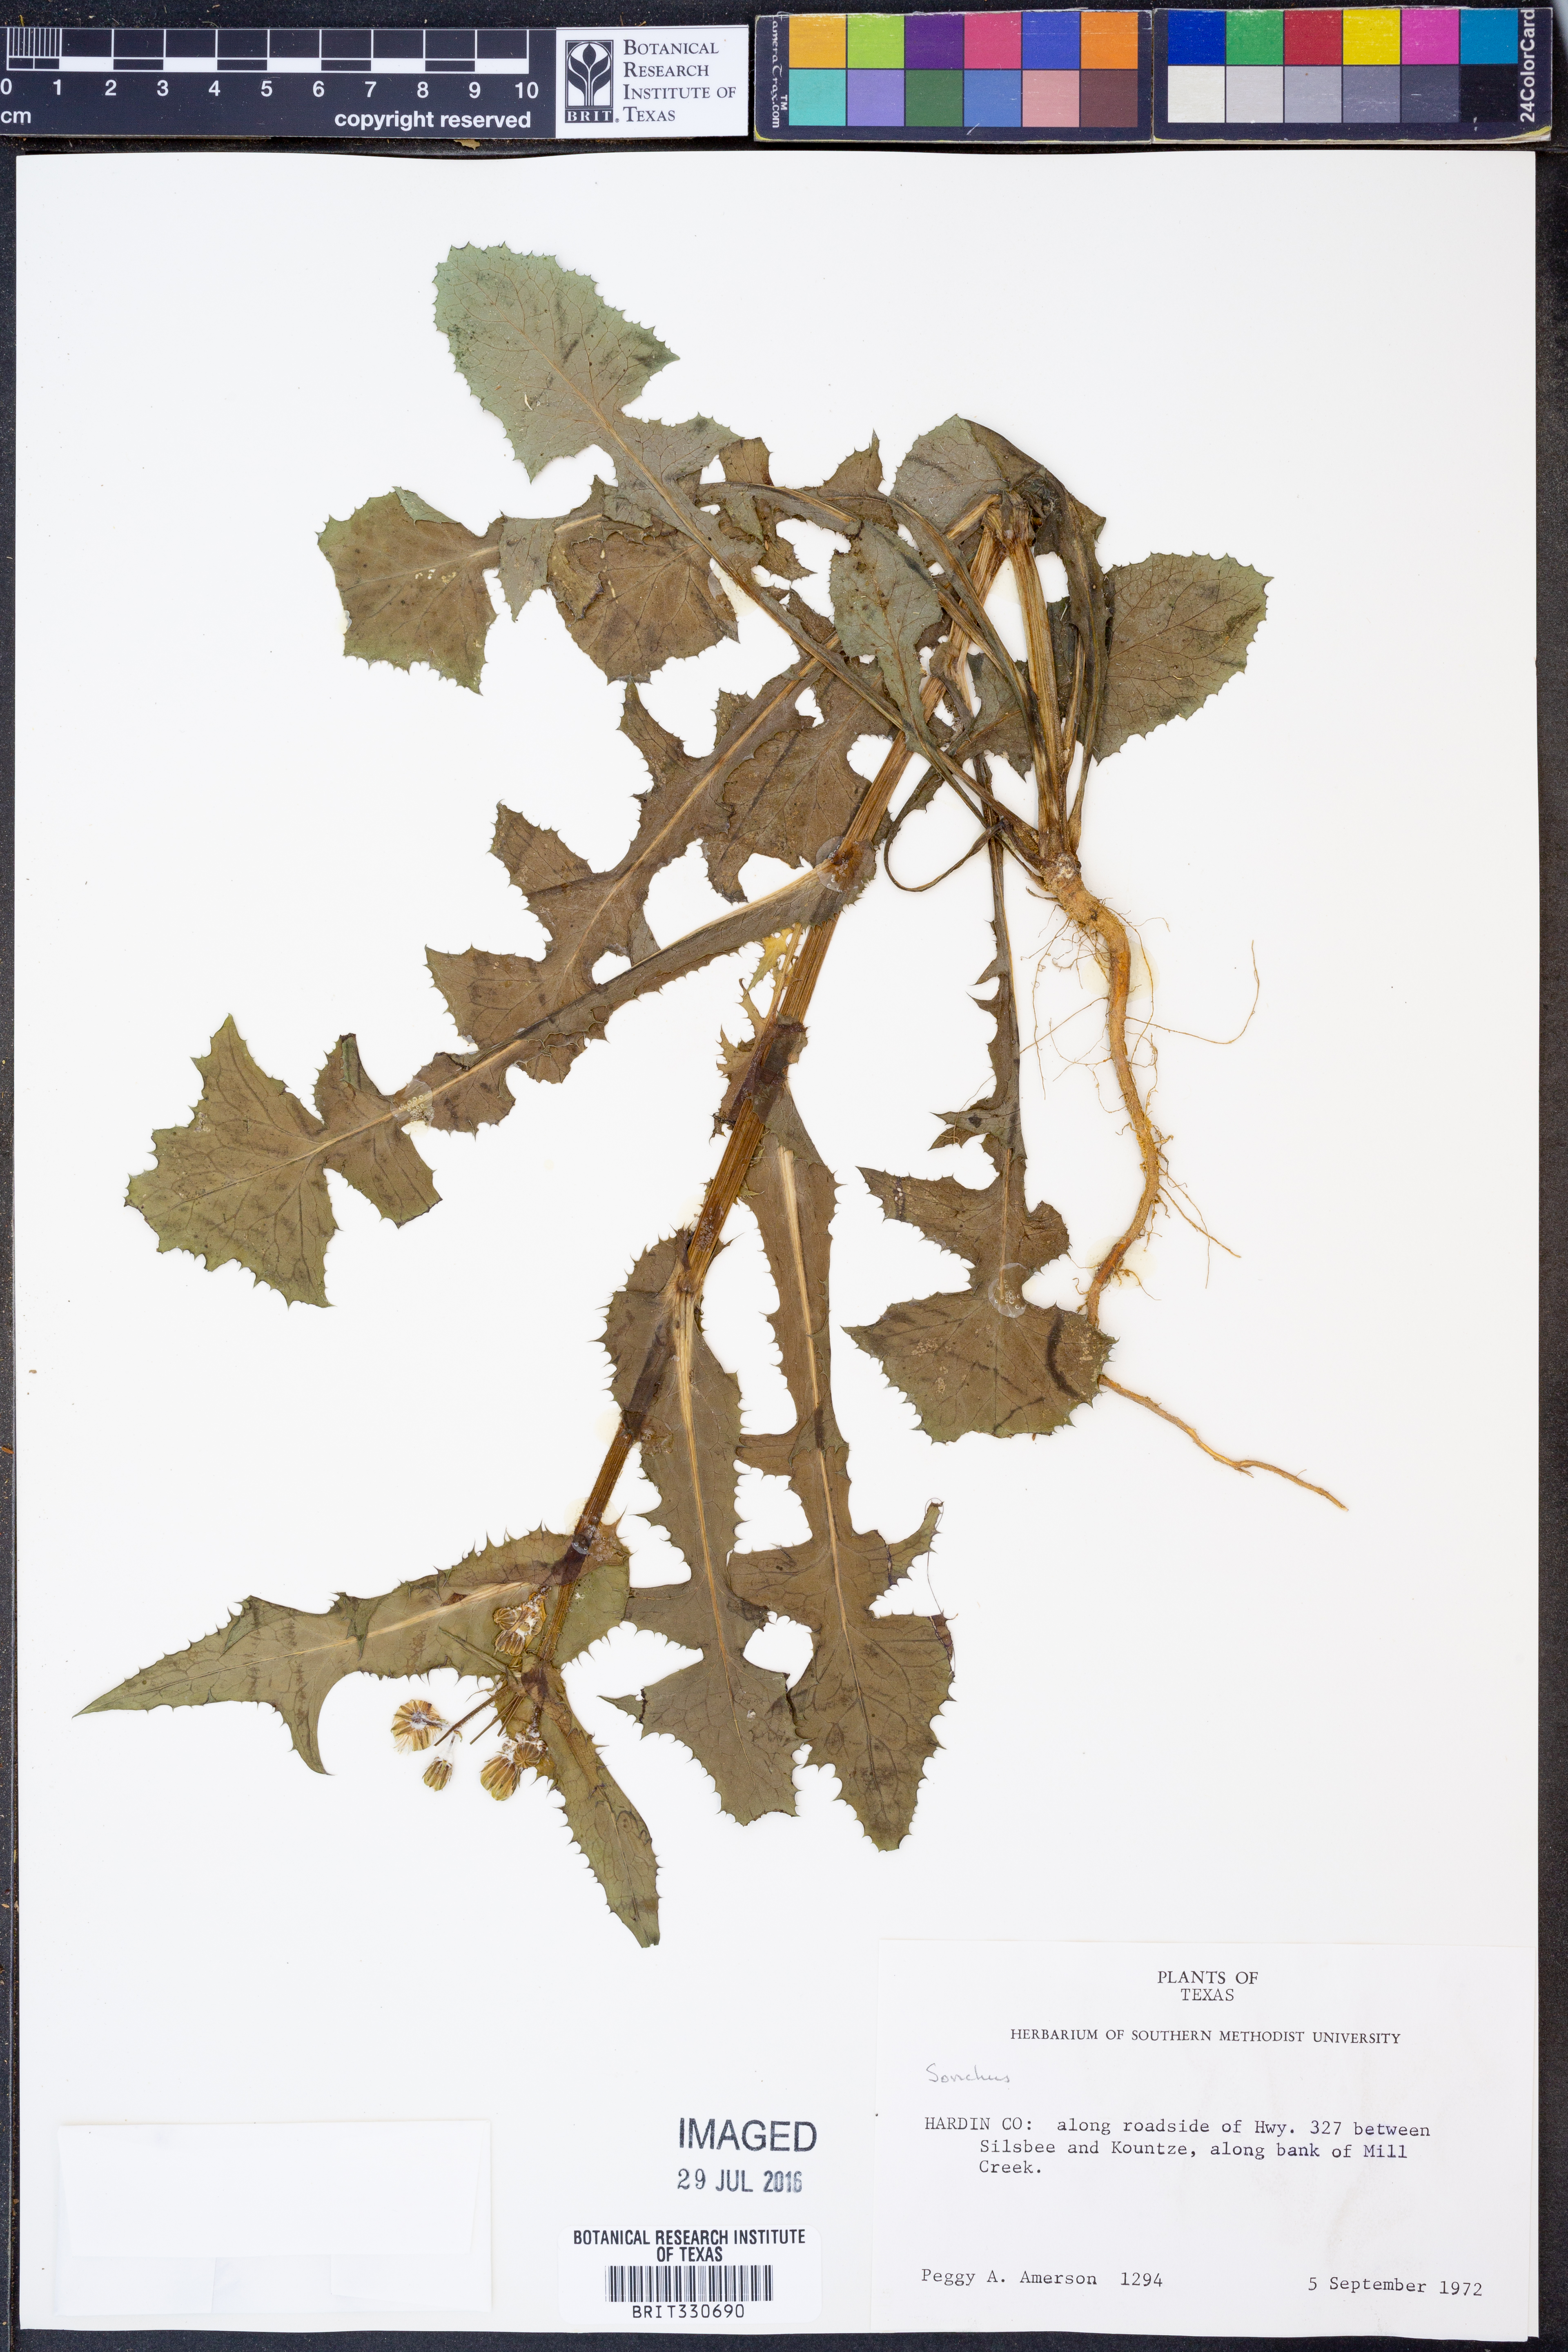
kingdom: Plantae
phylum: Tracheophyta
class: Magnoliopsida
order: Asterales
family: Asteraceae
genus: Sonchus
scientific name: Sonchus
